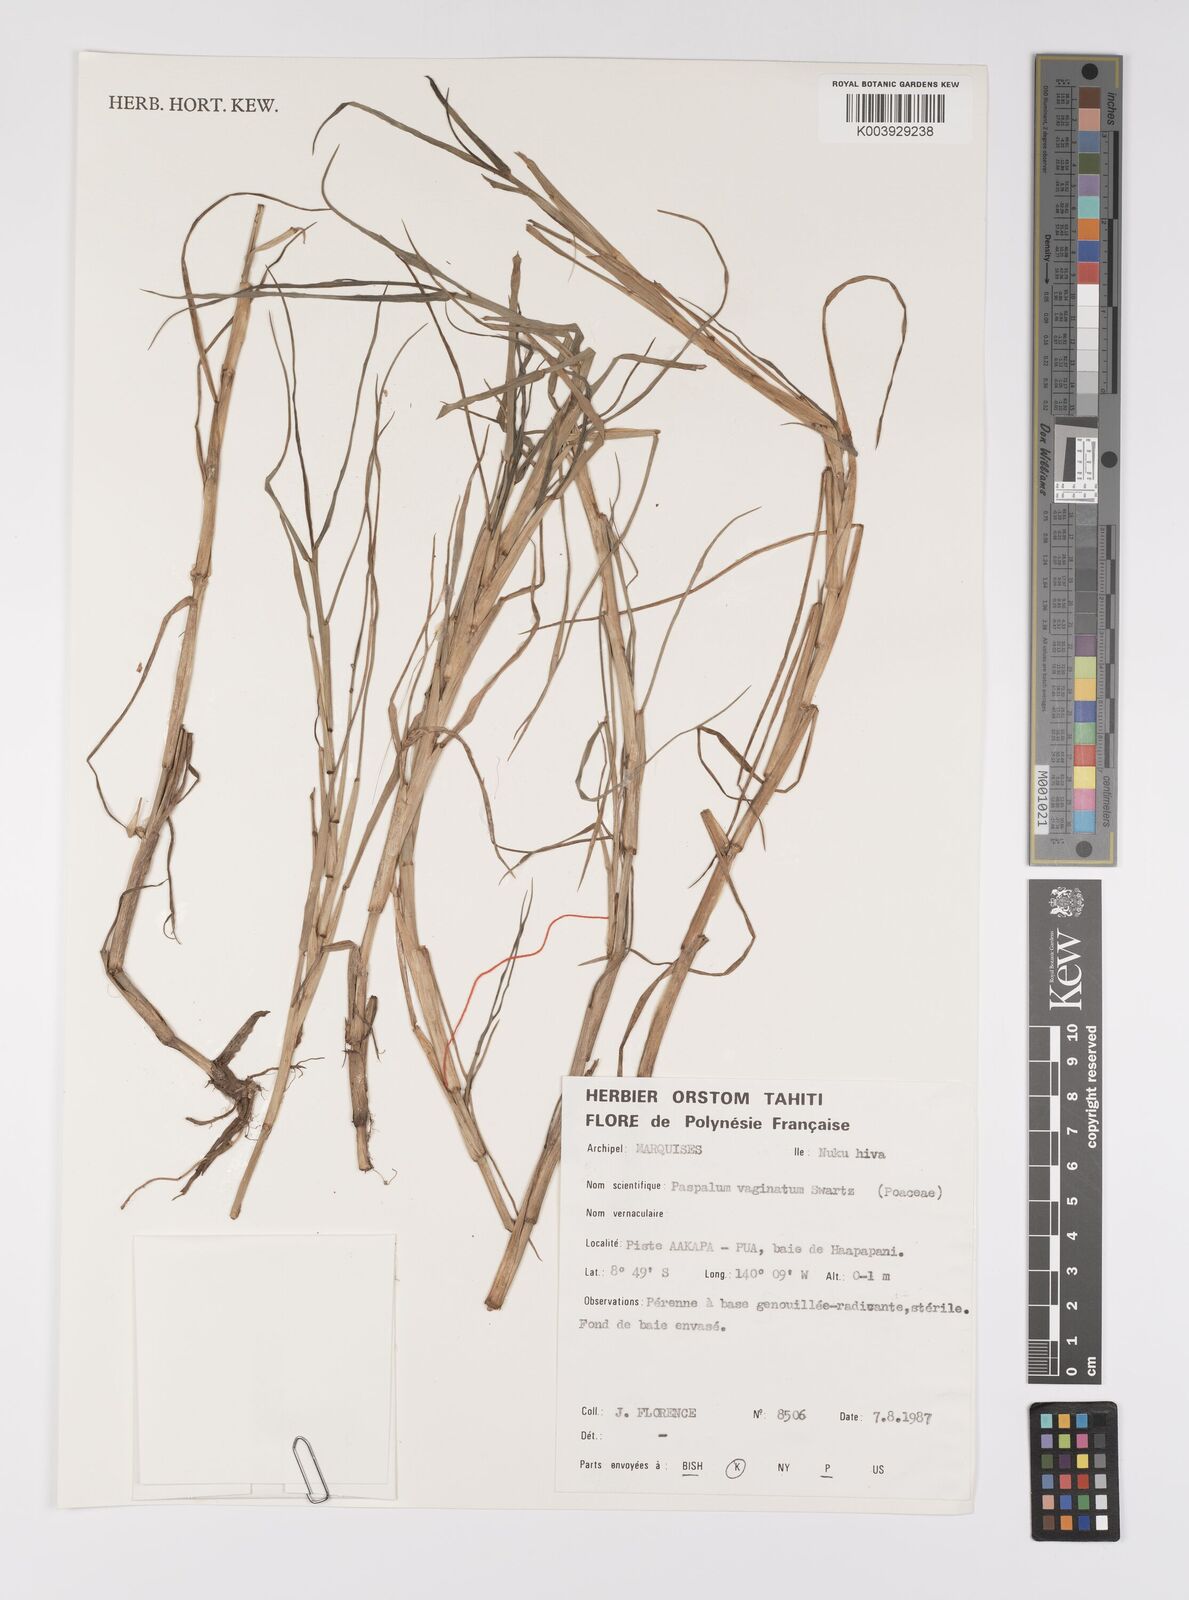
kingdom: Plantae
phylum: Tracheophyta
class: Liliopsida
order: Poales
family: Poaceae
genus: Paspalum
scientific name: Paspalum vaginatum
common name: Seashore paspalum
